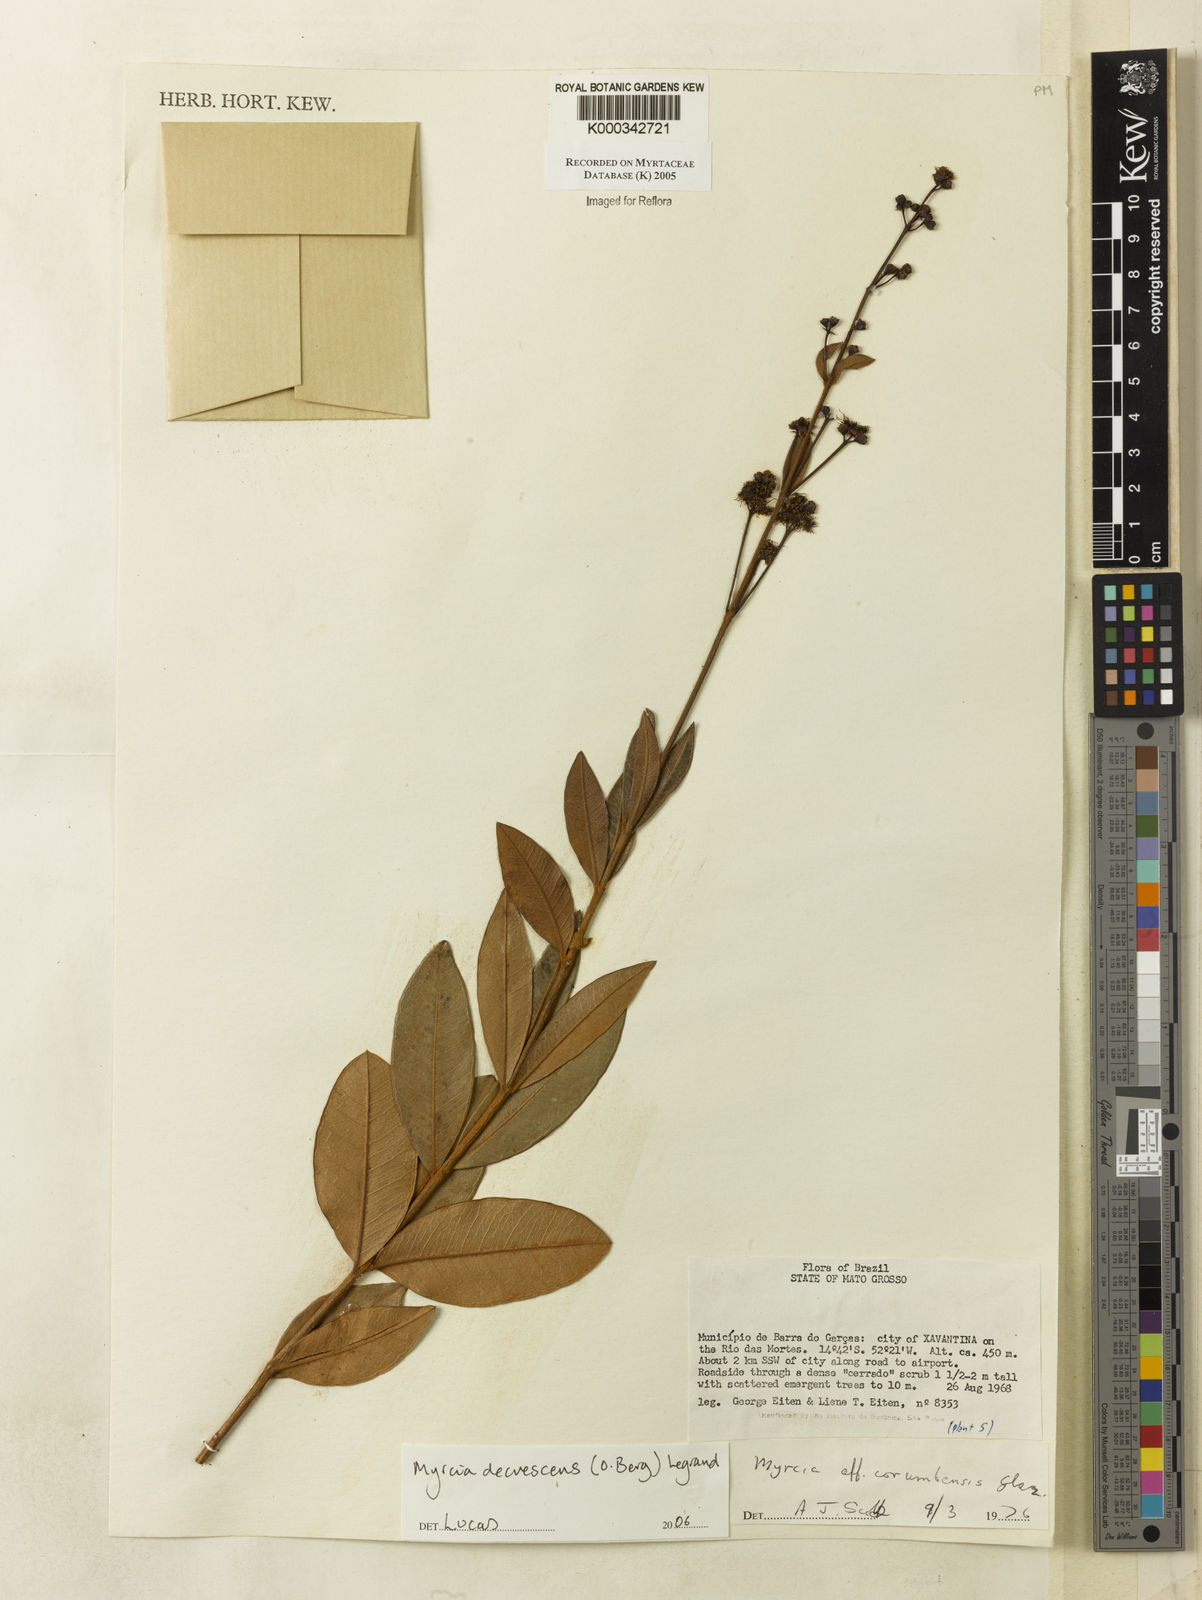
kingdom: Plantae
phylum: Tracheophyta
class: Magnoliopsida
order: Myrtales
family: Myrtaceae
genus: Myrcia
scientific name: Myrcia
